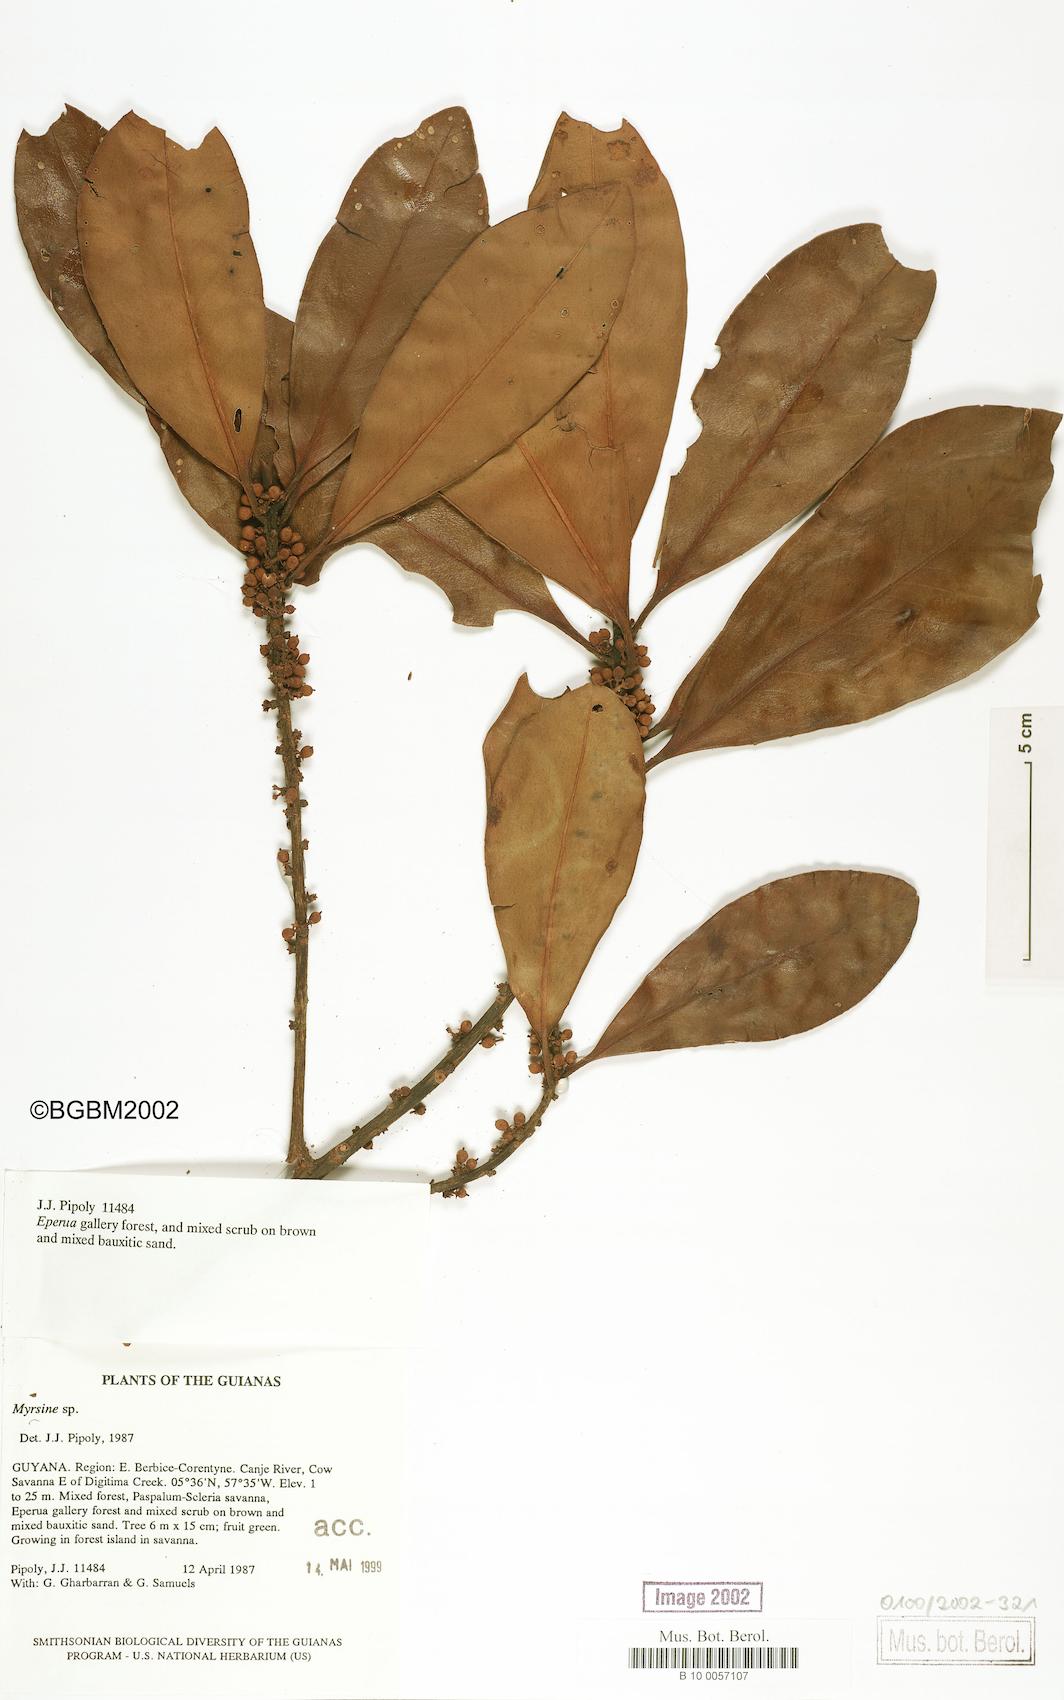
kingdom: Plantae
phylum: Tracheophyta
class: Magnoliopsida
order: Ericales
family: Primulaceae
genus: Myrsine
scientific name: Myrsine
